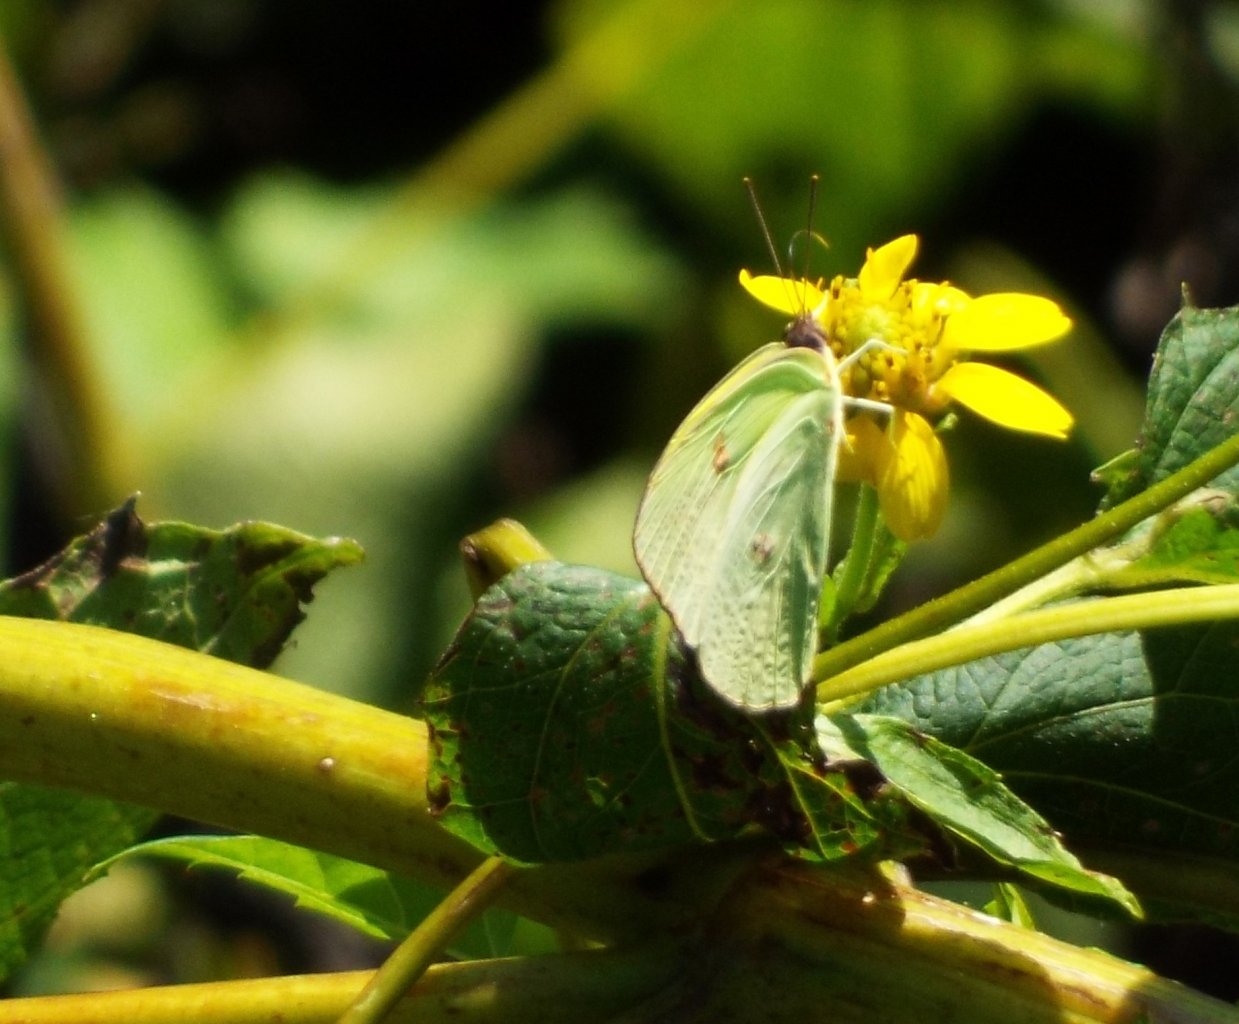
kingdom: Animalia
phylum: Arthropoda
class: Insecta
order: Lepidoptera
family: Pieridae
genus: Phoebis
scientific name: Phoebis sennae
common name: Cloudless Sulphur
